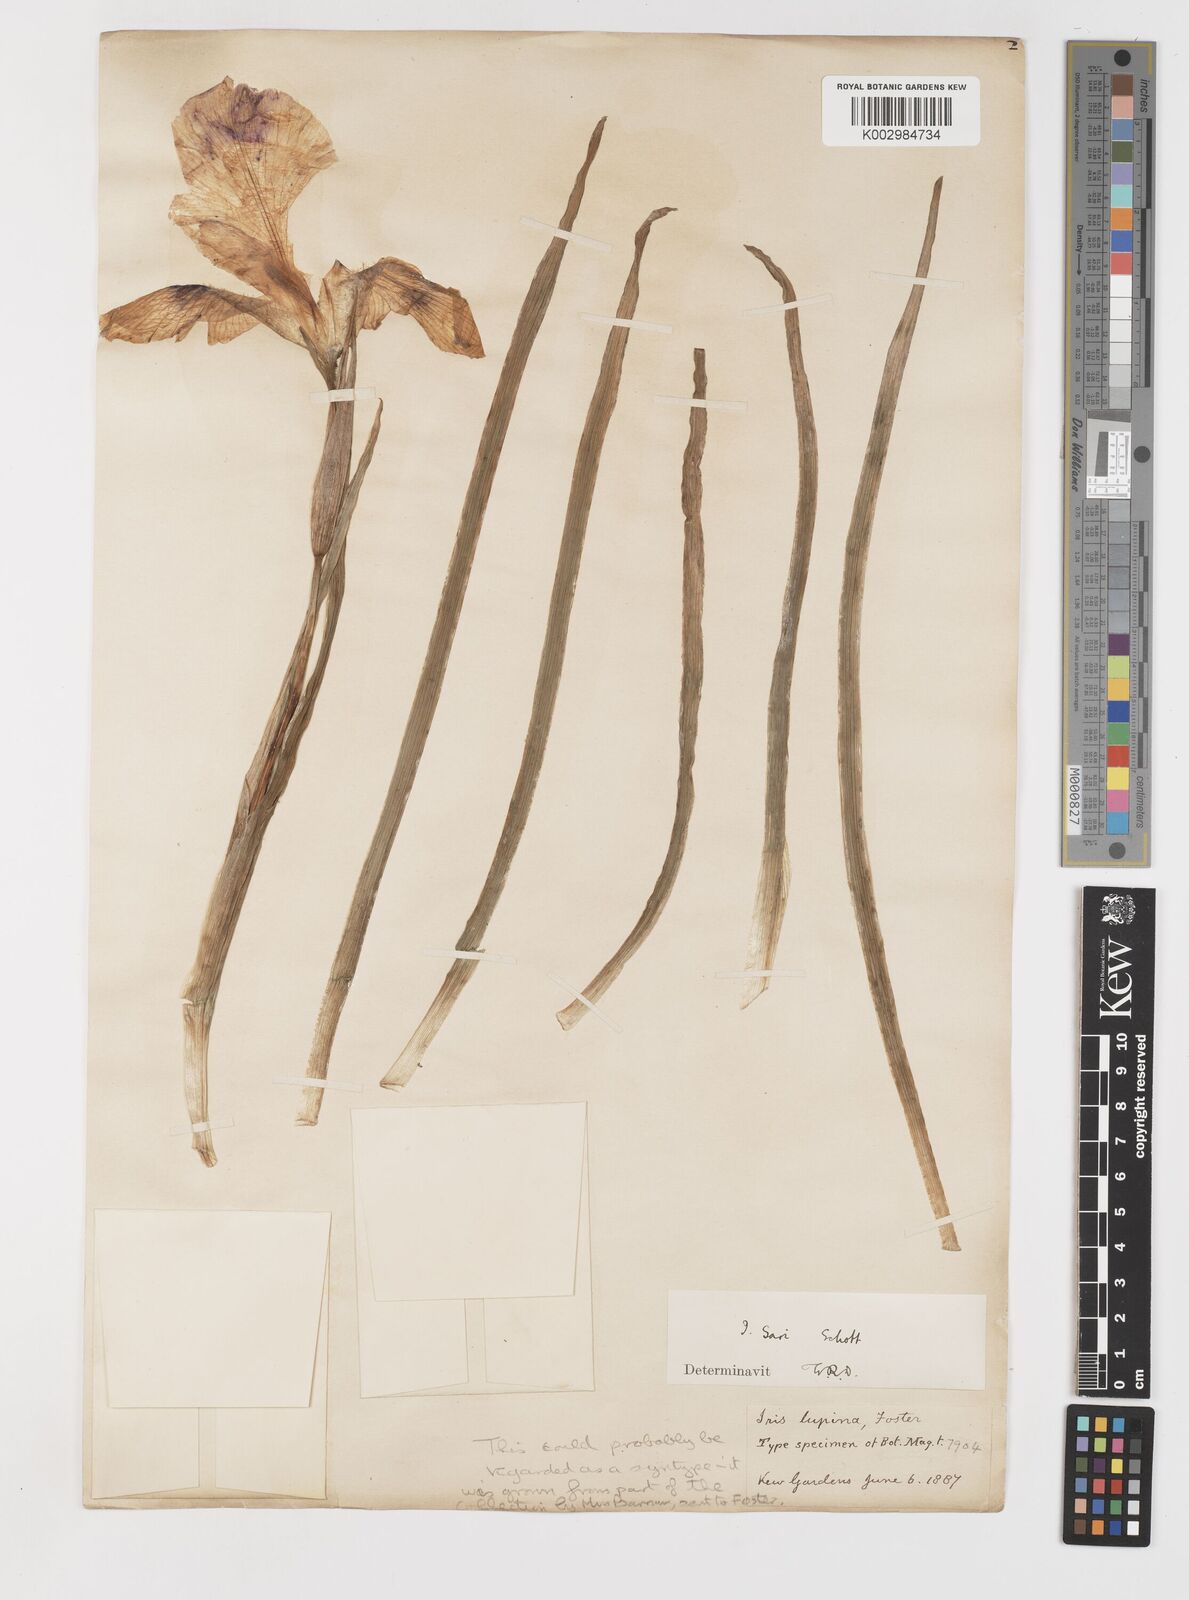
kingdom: Plantae
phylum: Tracheophyta
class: Liliopsida
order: Asparagales
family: Iridaceae
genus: Iris
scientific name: Iris sari
